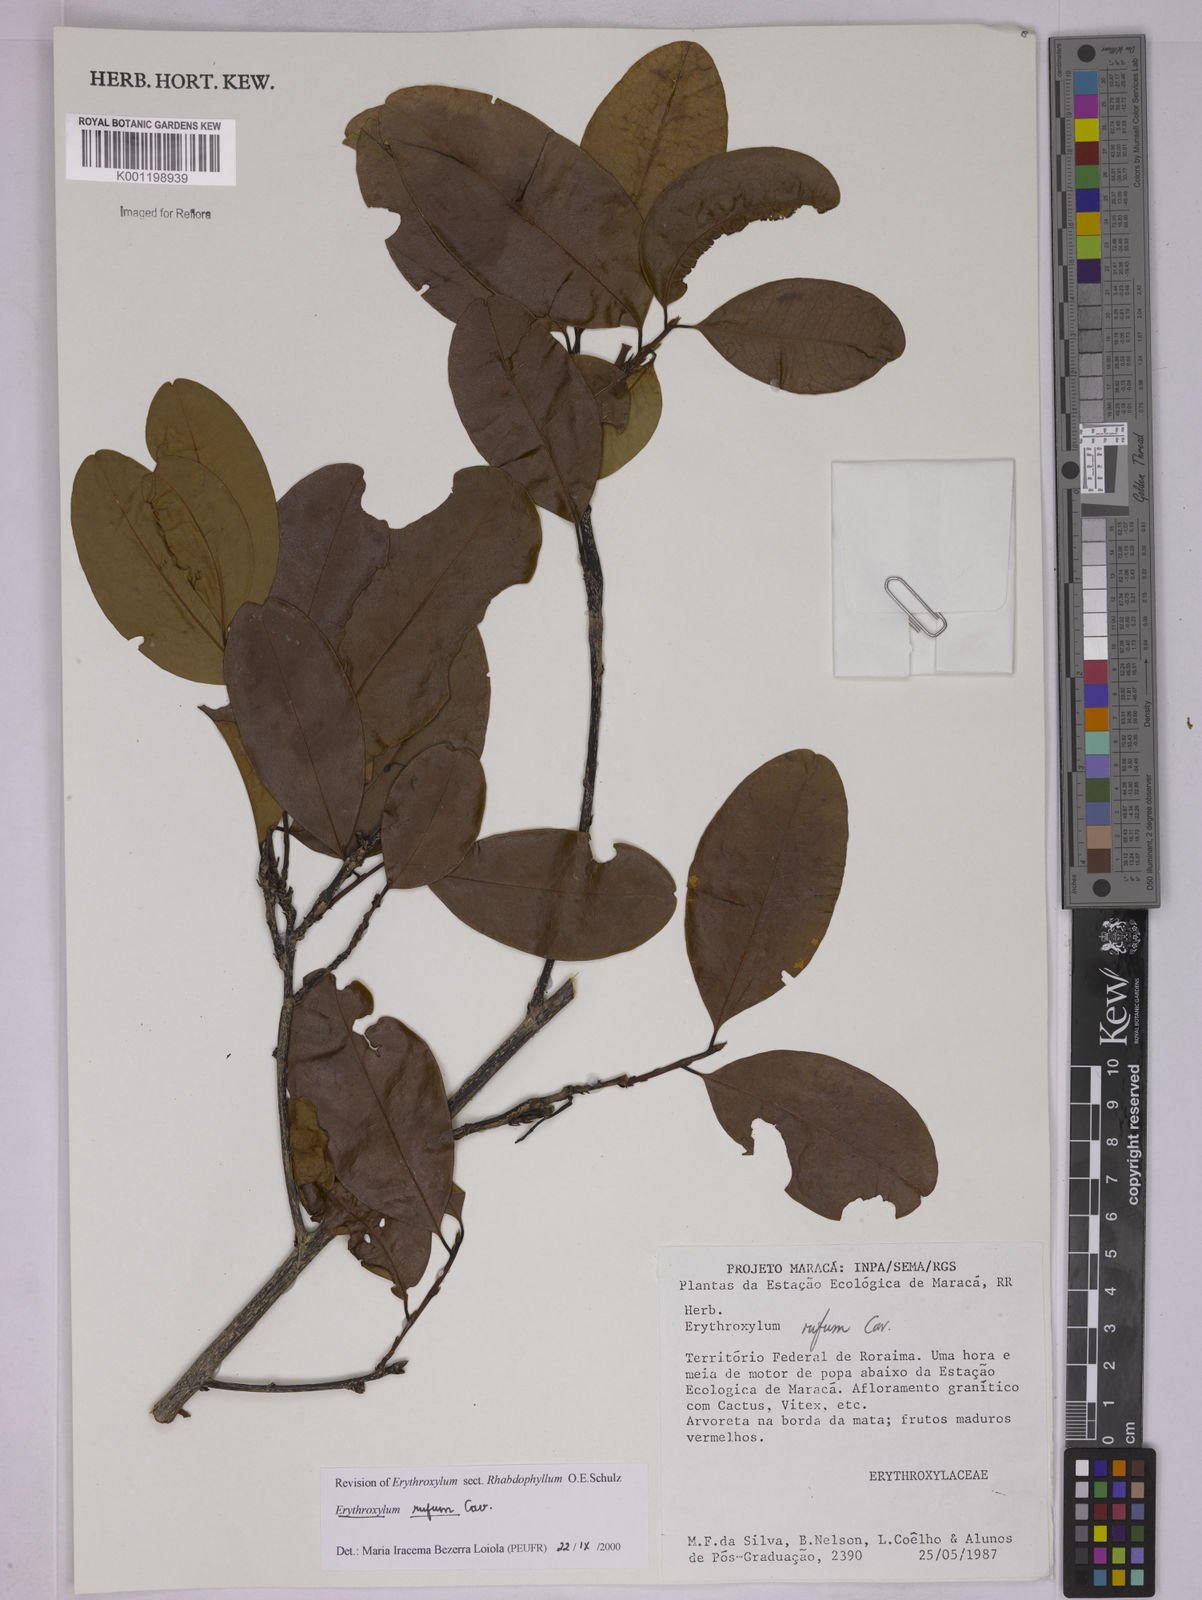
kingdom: Plantae
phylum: Tracheophyta
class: Magnoliopsida
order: Malpighiales
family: Erythroxylaceae
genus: Erythroxylum
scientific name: Erythroxylum rufum
